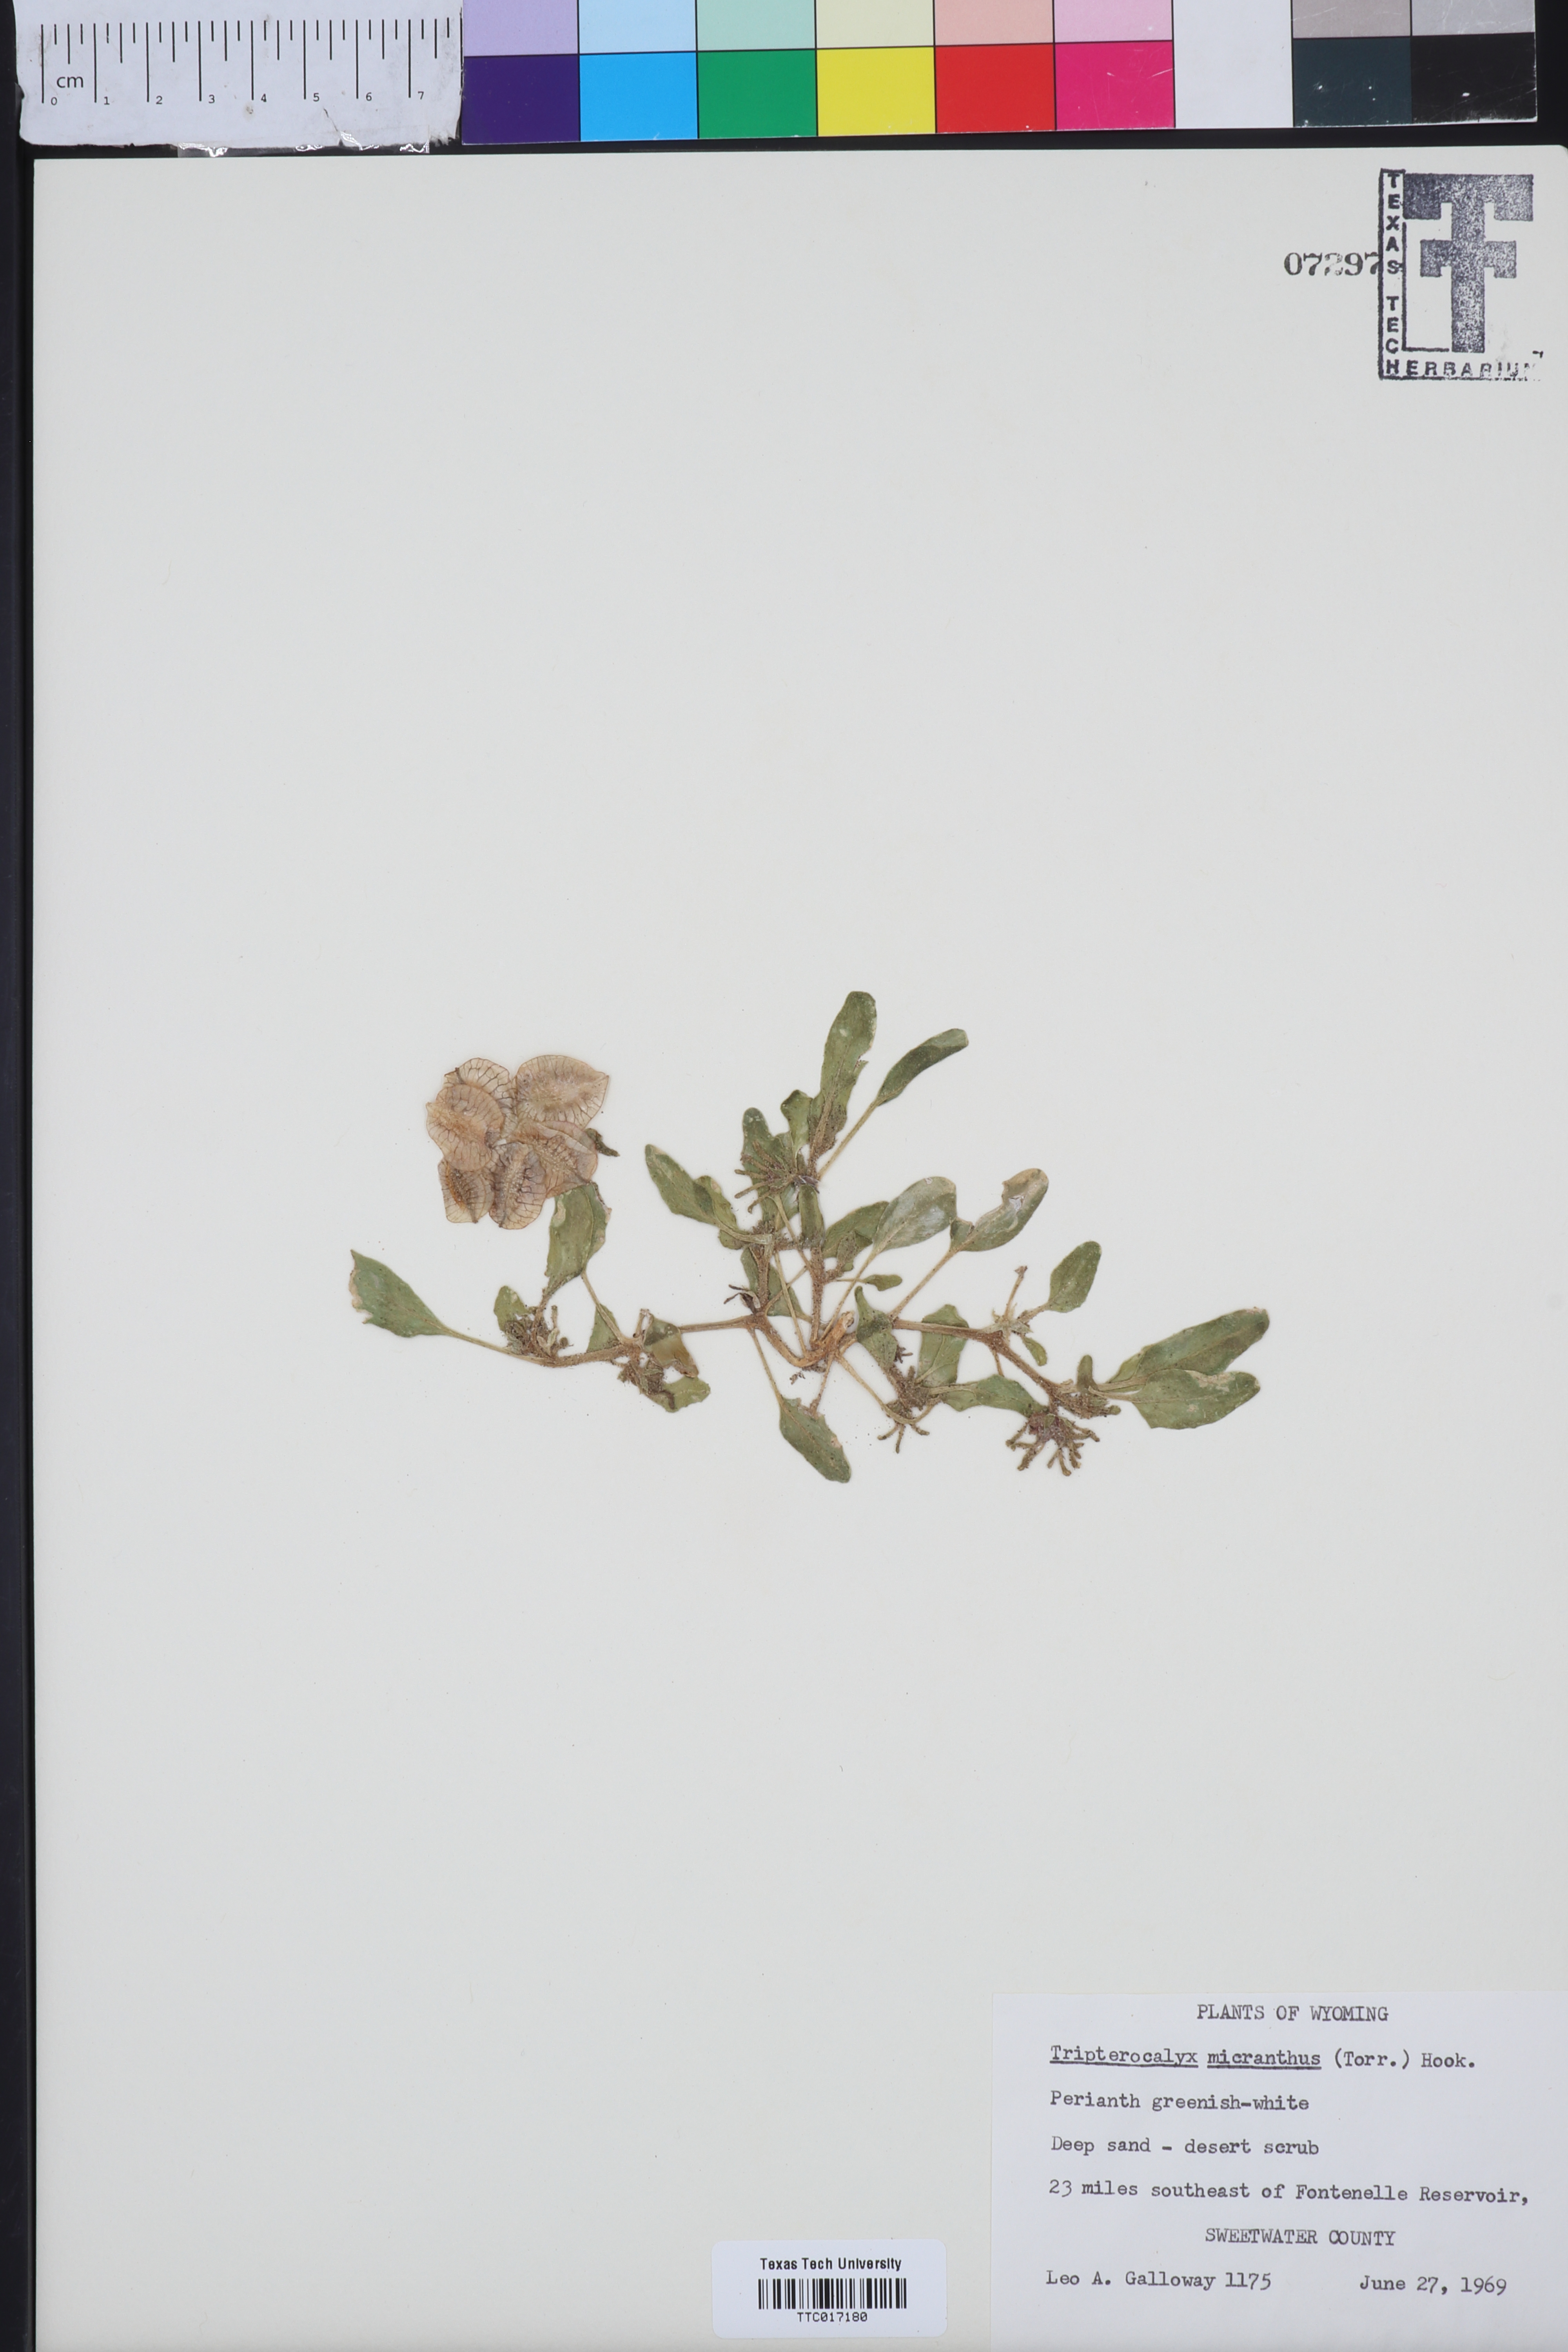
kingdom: Plantae
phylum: Tracheophyta
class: Magnoliopsida
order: Caryophyllales
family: Nyctaginaceae
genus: Tripterocalyx
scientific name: Tripterocalyx micranthus
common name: Small-flowered sand-verbena
